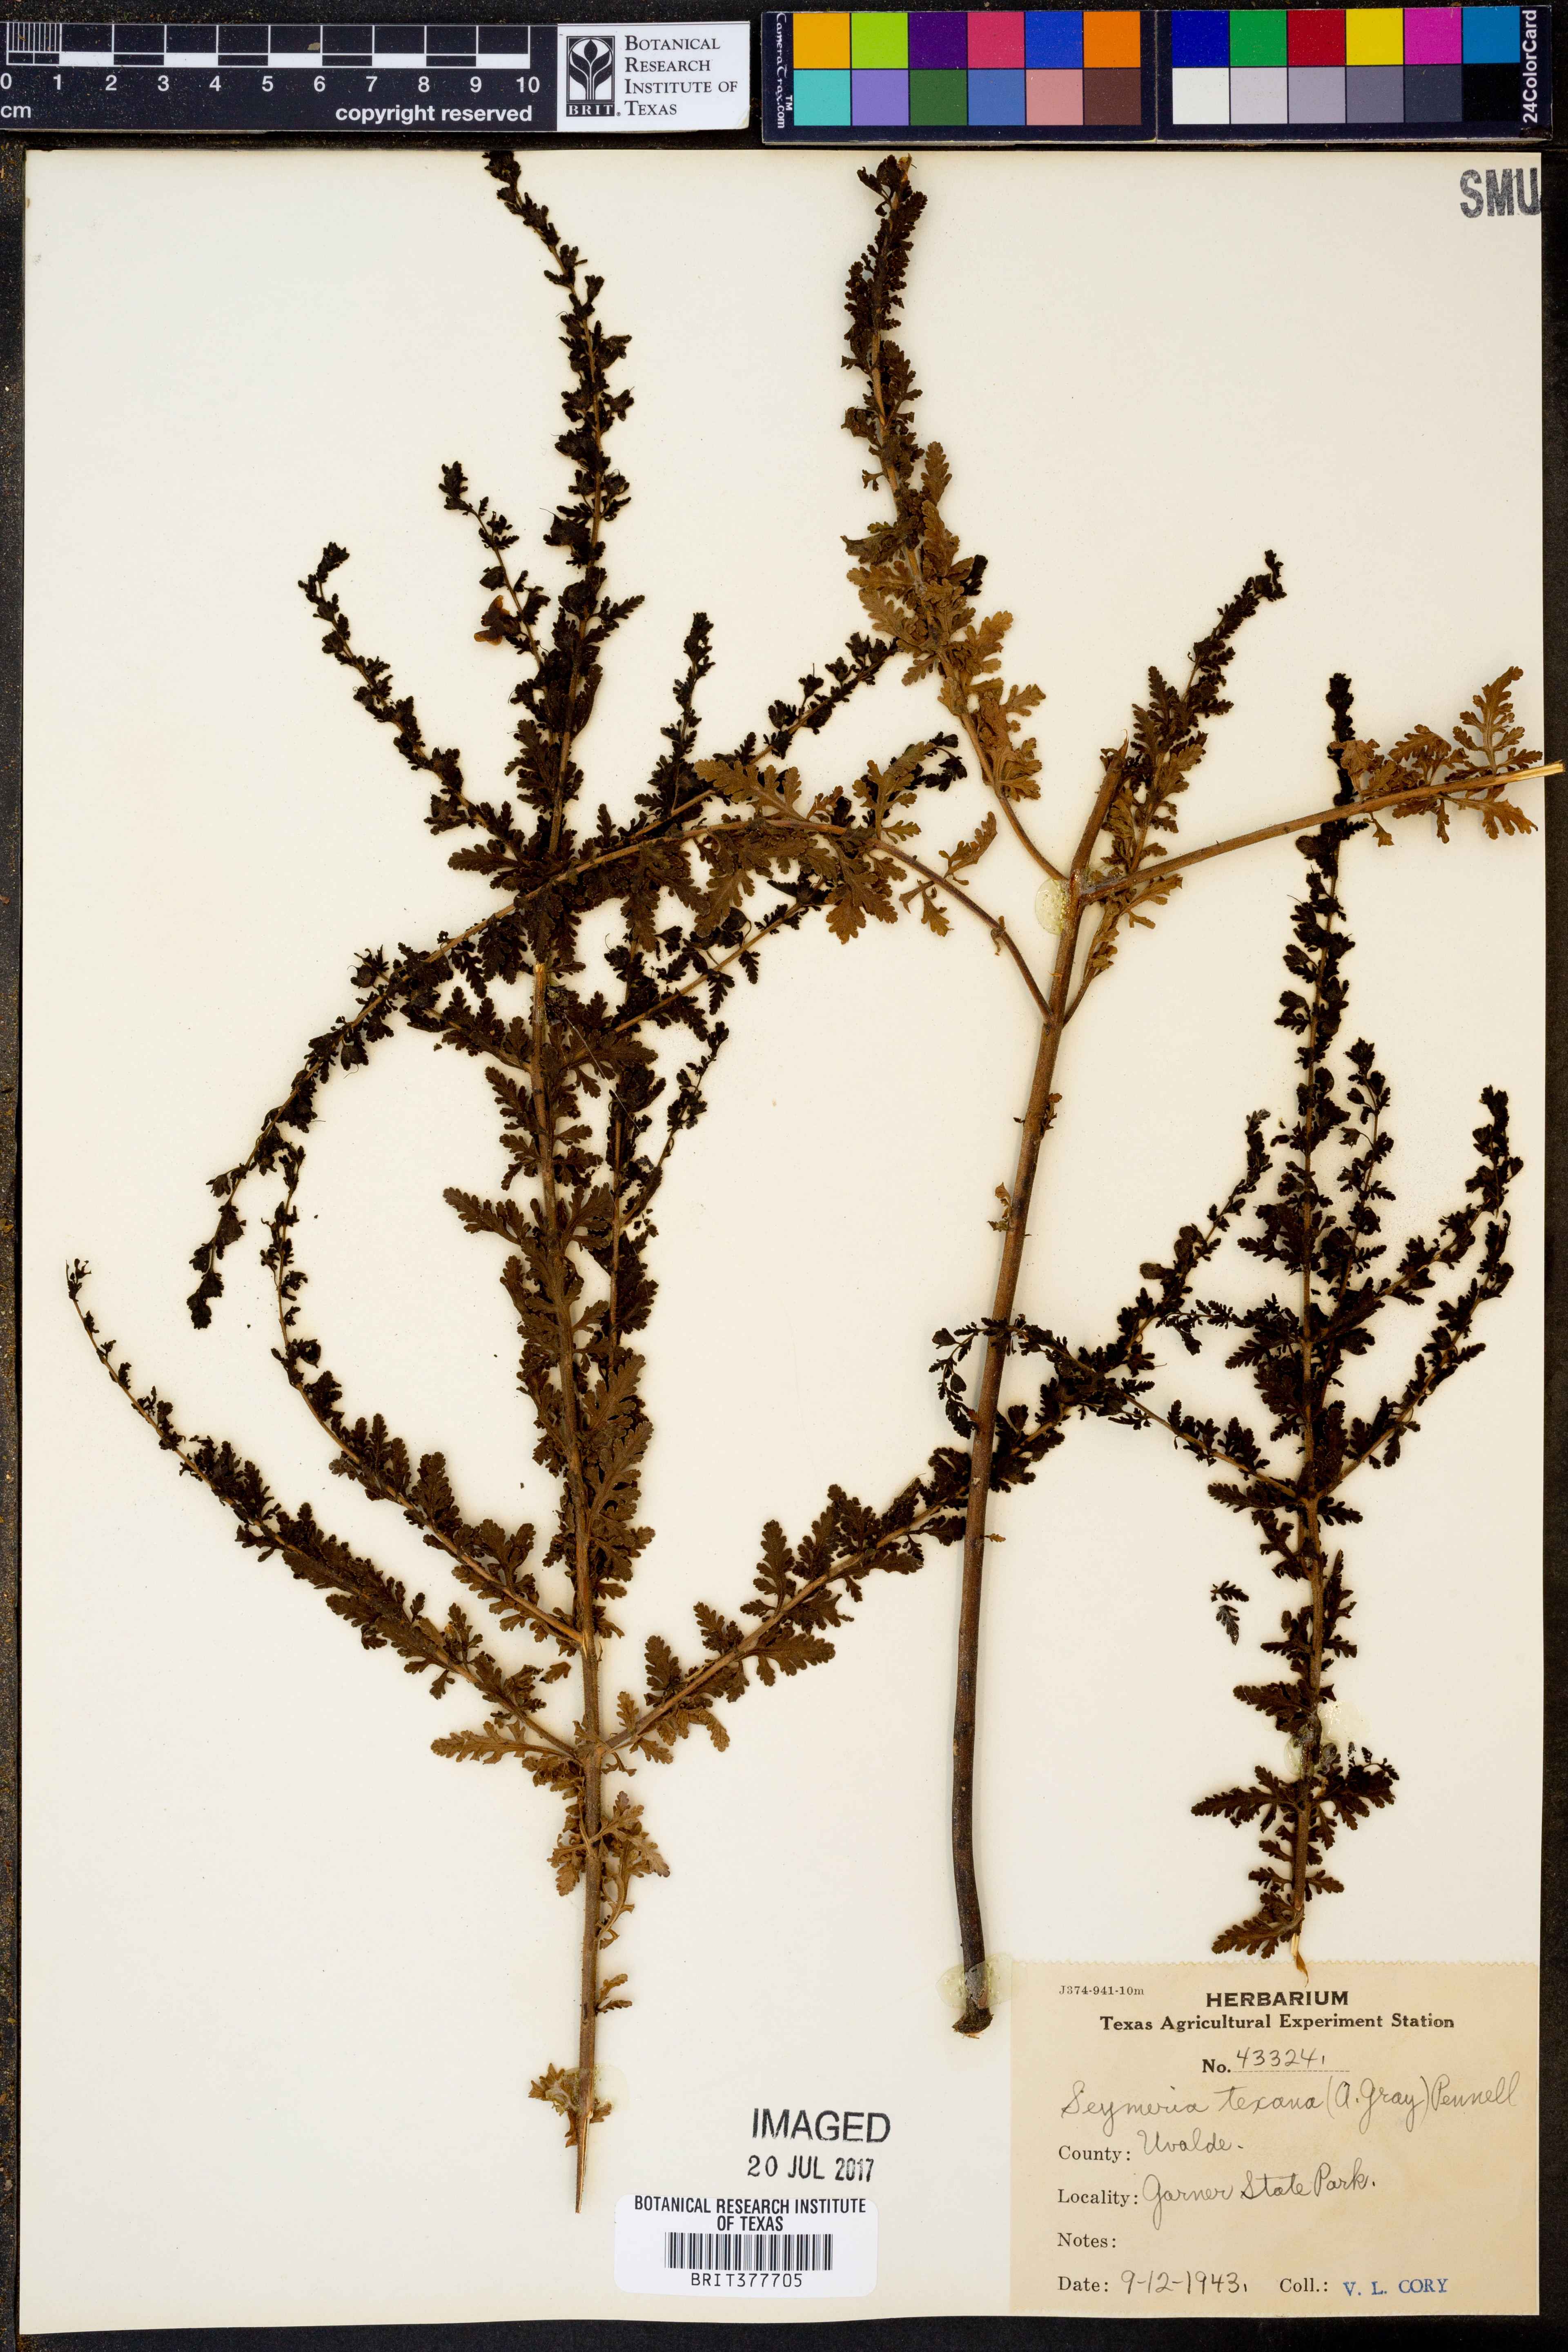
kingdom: Plantae
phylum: Tracheophyta
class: Magnoliopsida
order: Lamiales
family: Orobanchaceae
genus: Seymeria
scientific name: Seymeria bipinnatisecta
